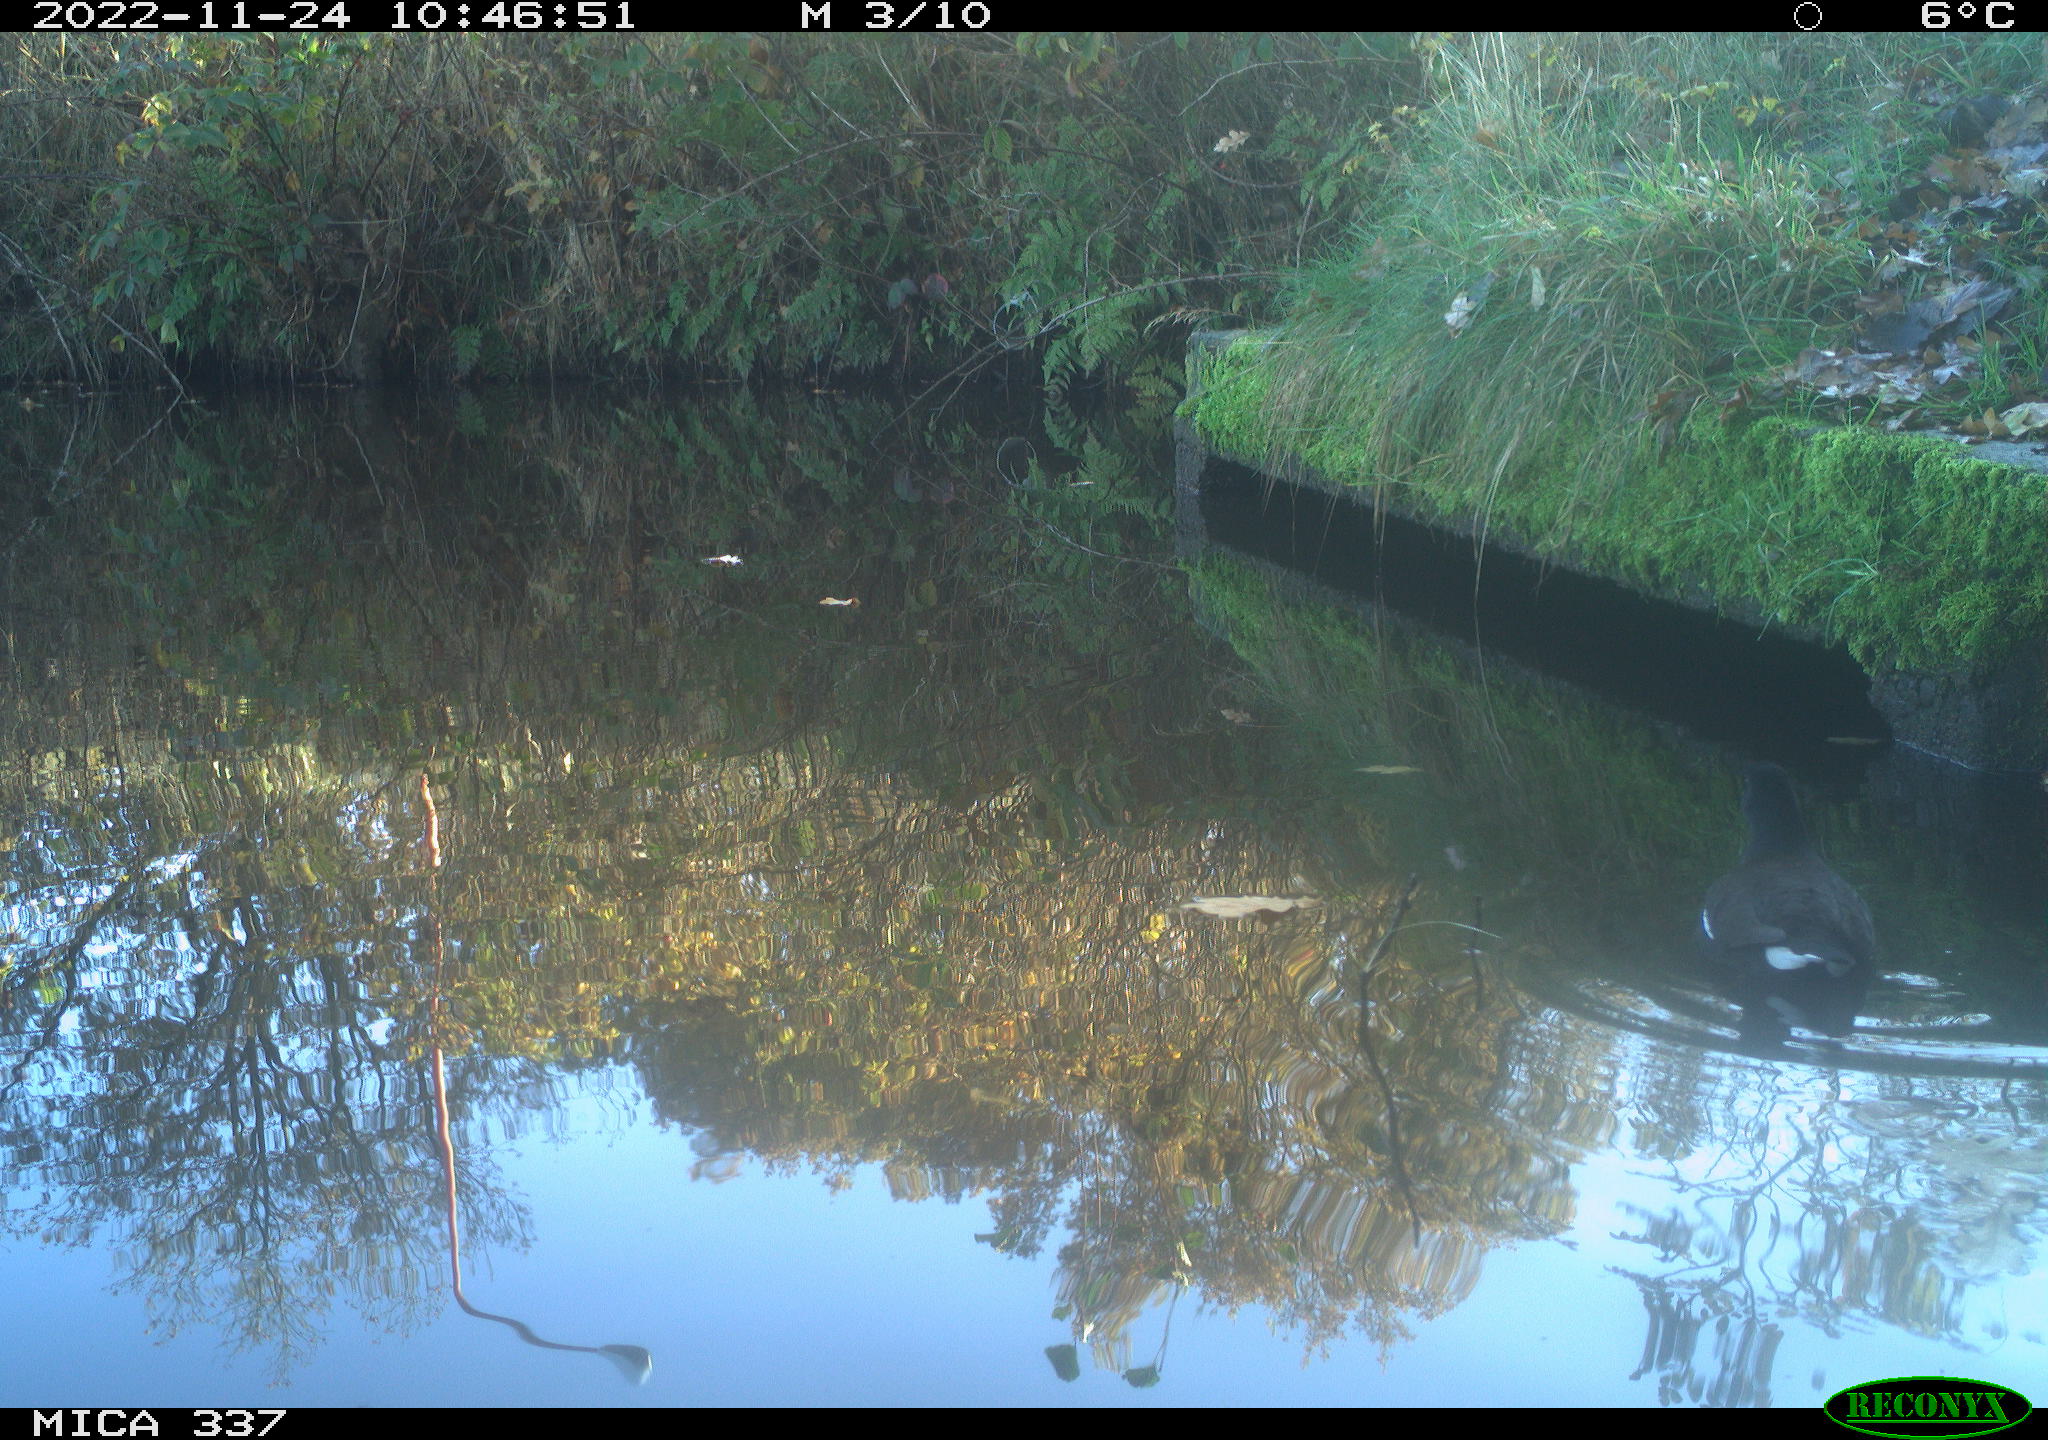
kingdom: Animalia
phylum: Chordata
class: Aves
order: Gruiformes
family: Rallidae
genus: Gallinula
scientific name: Gallinula chloropus
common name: Common moorhen
